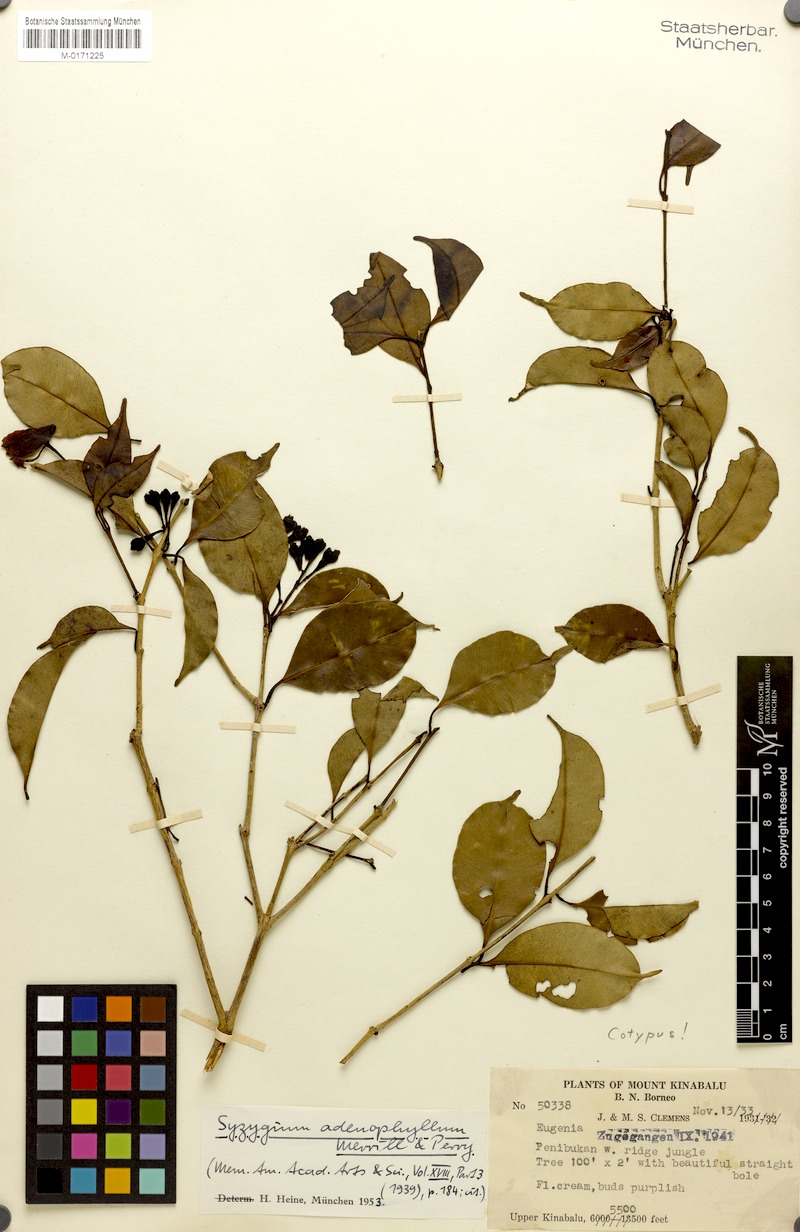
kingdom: Plantae
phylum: Tracheophyta
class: Magnoliopsida
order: Myrtales
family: Myrtaceae
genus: Syzygium
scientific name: Syzygium adenophyllum
